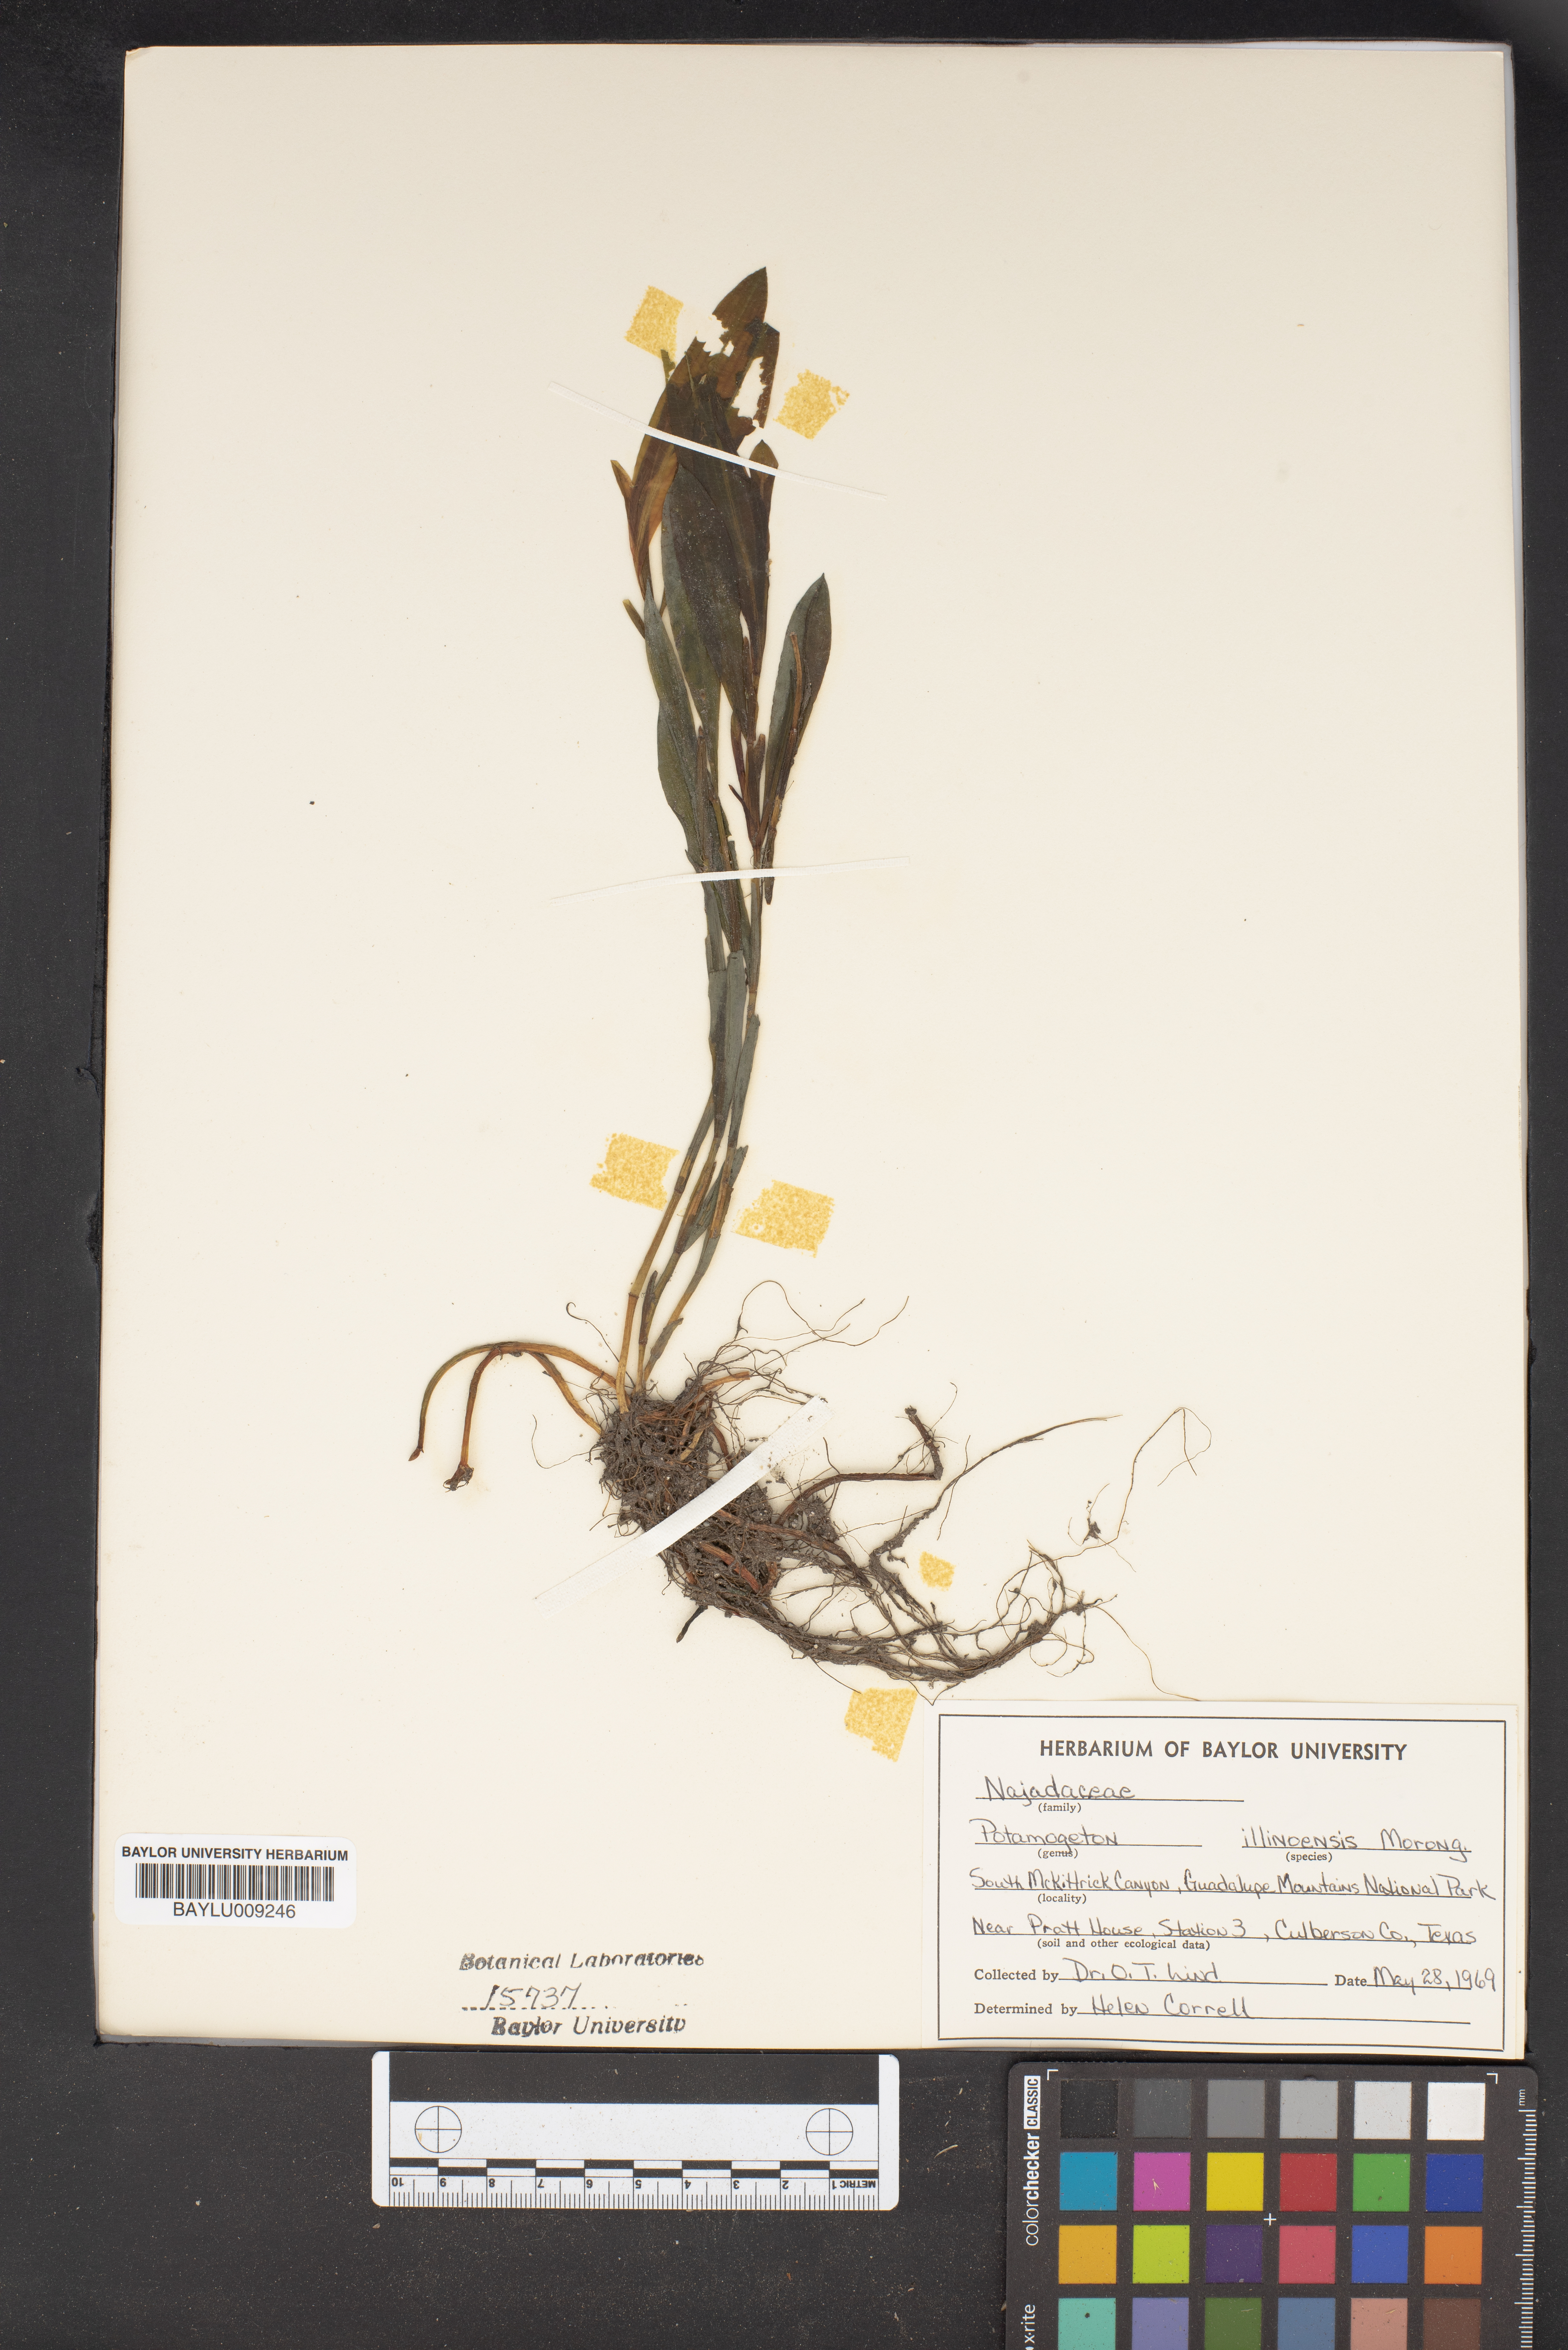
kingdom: Plantae
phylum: Tracheophyta
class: Liliopsida
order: Alismatales
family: Potamogetonaceae
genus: Potamogeton
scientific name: Potamogeton illinoensis
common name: Illinois pondweed
